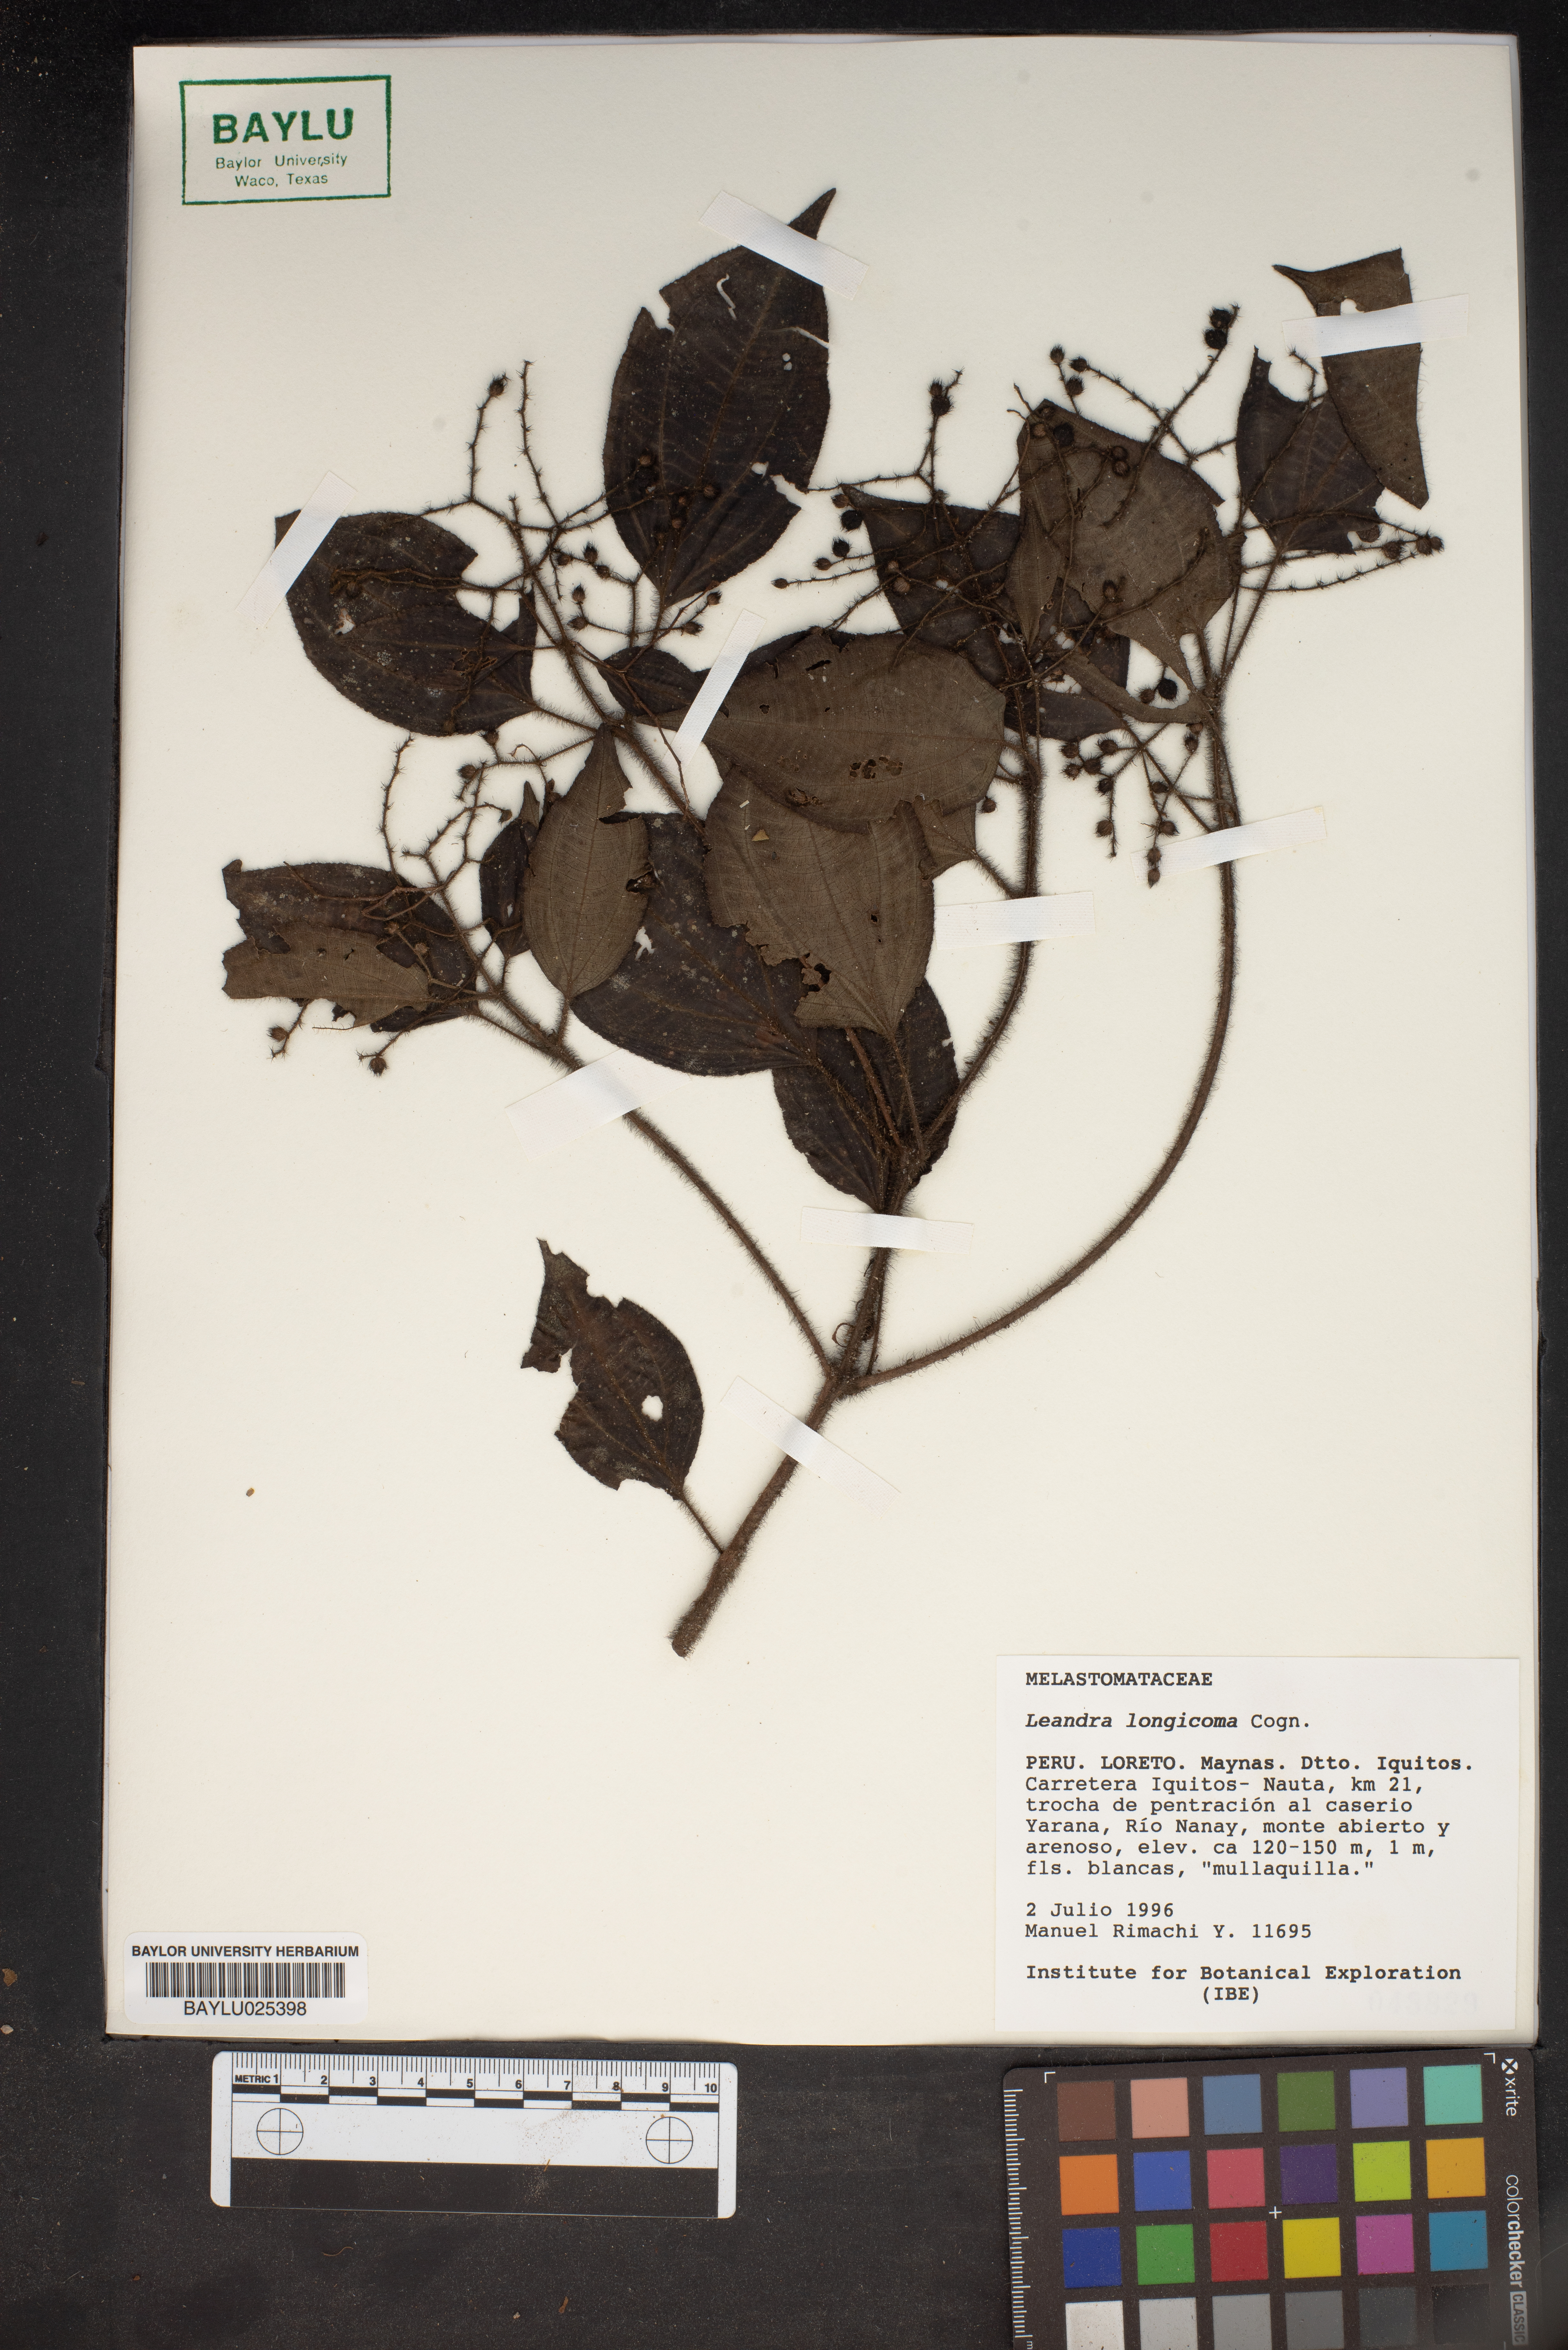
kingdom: Plantae
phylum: Tracheophyta
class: Magnoliopsida
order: Myrtales
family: Melastomataceae
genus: Miconia
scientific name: Miconia longicoma
